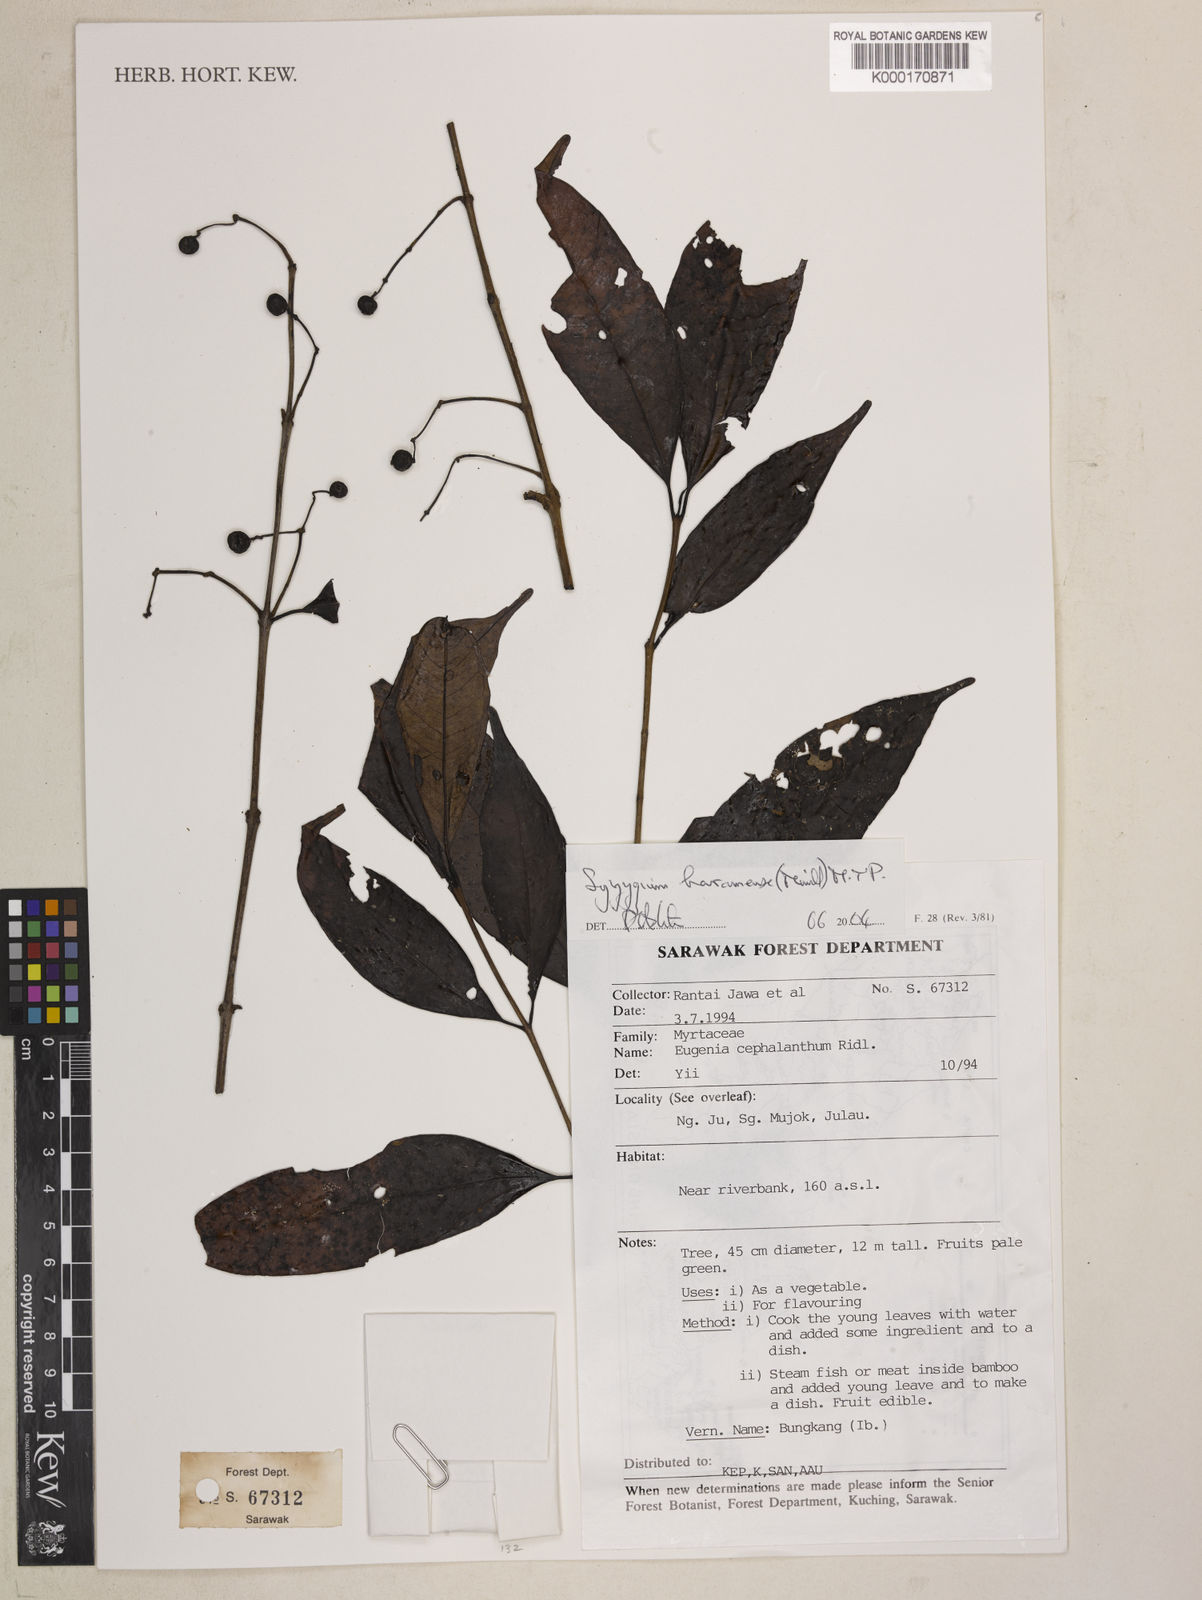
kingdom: Plantae
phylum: Tracheophyta
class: Magnoliopsida
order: Myrtales
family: Myrtaceae
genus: Syzygium
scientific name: Syzygium baramense
